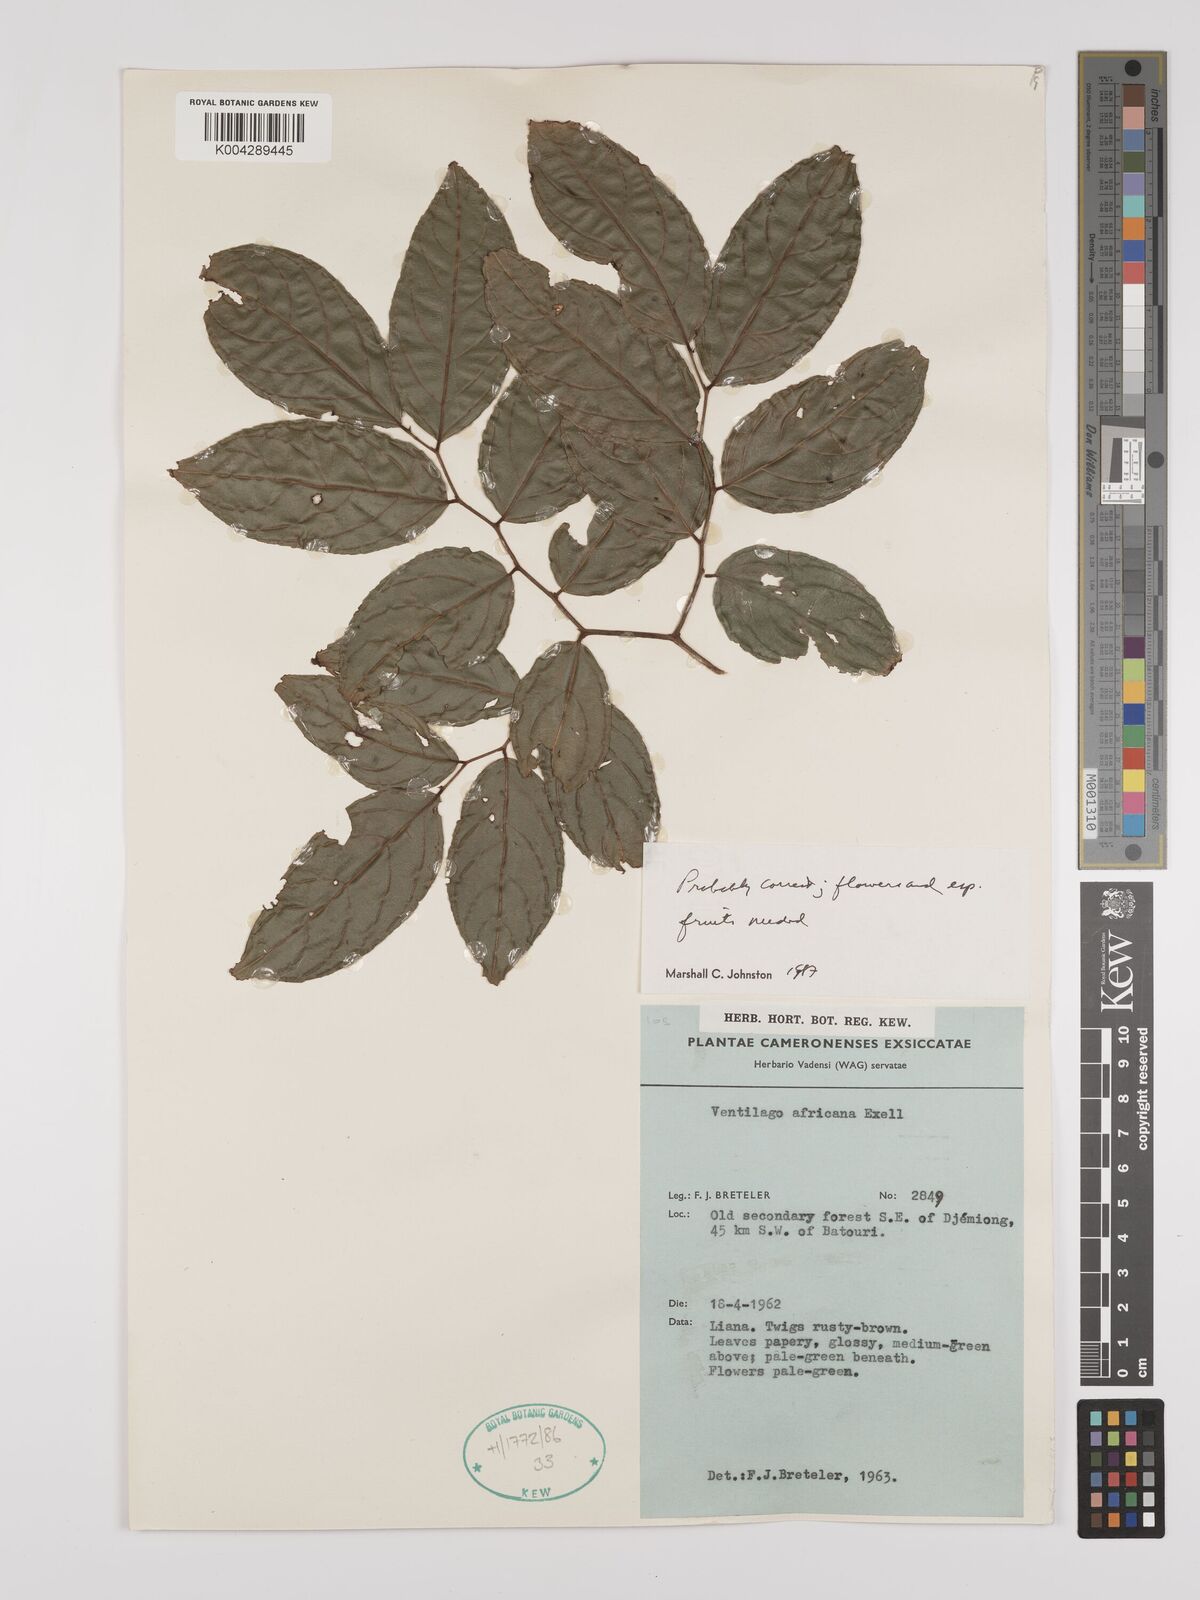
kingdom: Plantae
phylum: Tracheophyta
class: Magnoliopsida
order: Rosales
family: Rhamnaceae
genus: Ventilago
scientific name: Ventilago africana
